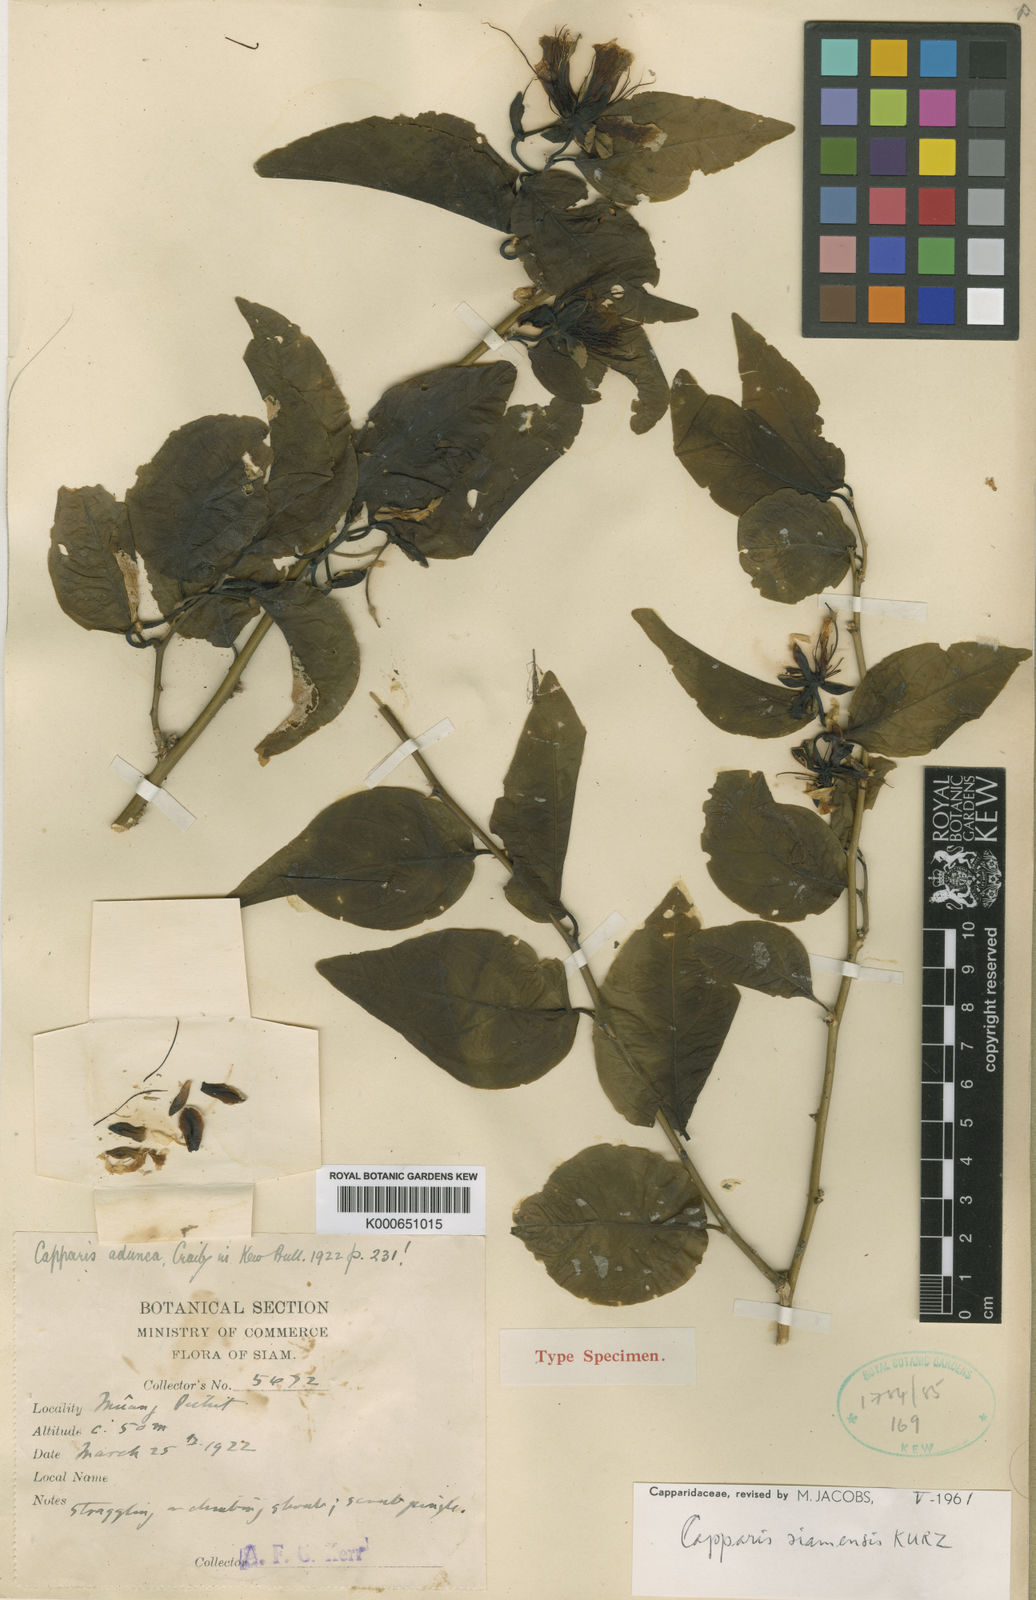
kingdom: Plantae
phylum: Tracheophyta
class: Magnoliopsida
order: Brassicales
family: Capparaceae
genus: Capparis
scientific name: Capparis siamensis
